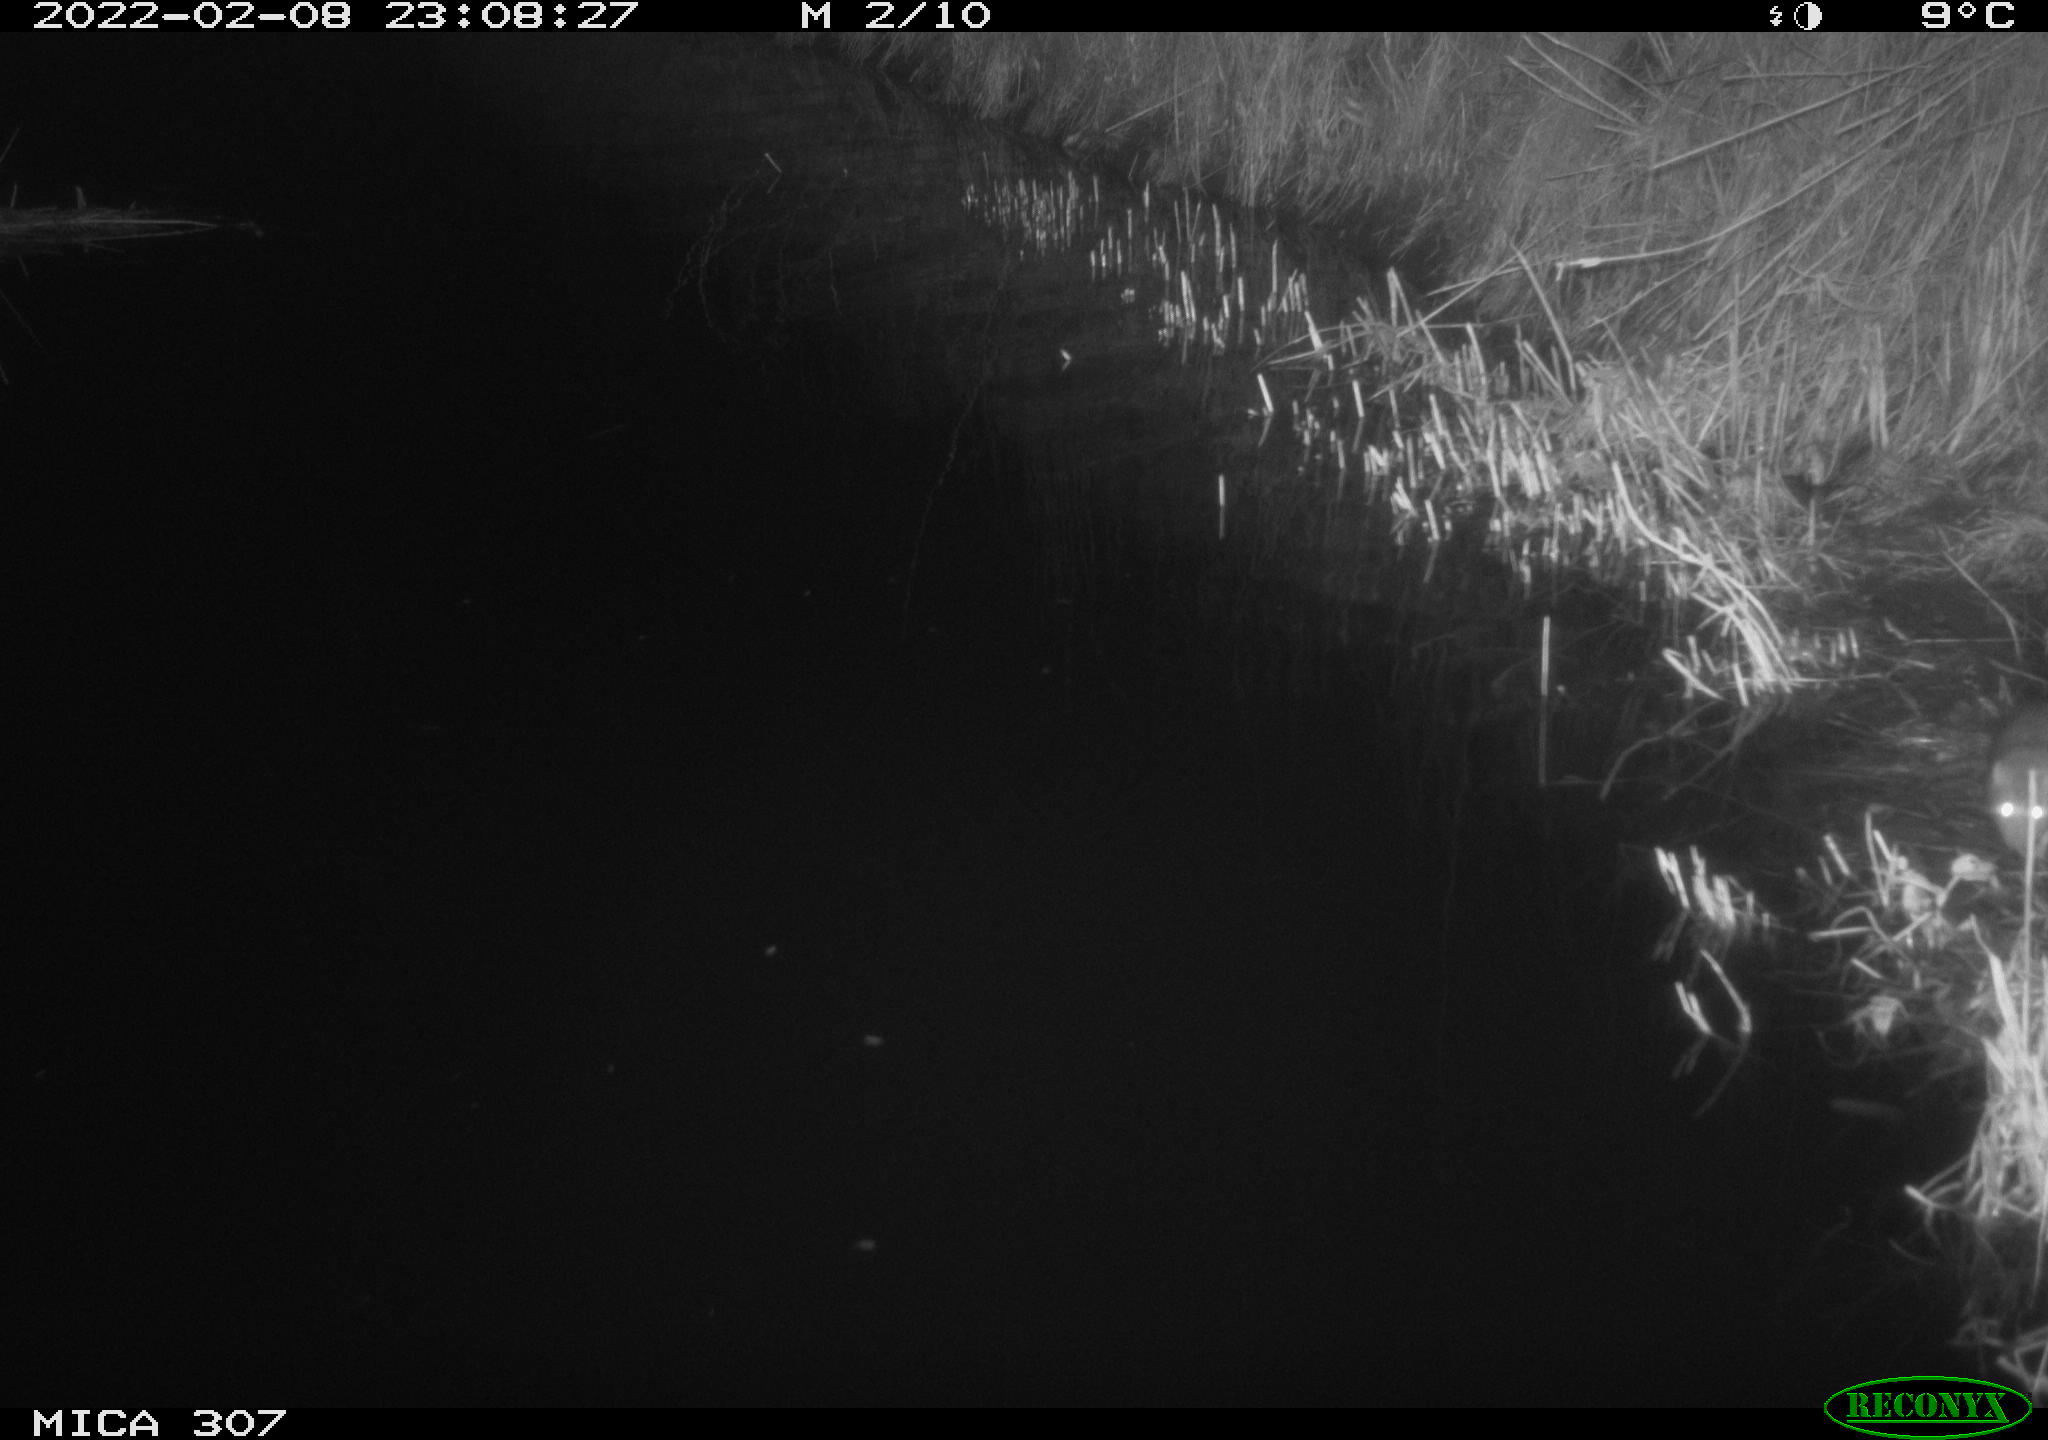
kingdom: Animalia
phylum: Chordata
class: Mammalia
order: Rodentia
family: Muridae
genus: Rattus
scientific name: Rattus norvegicus
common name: Brown rat
